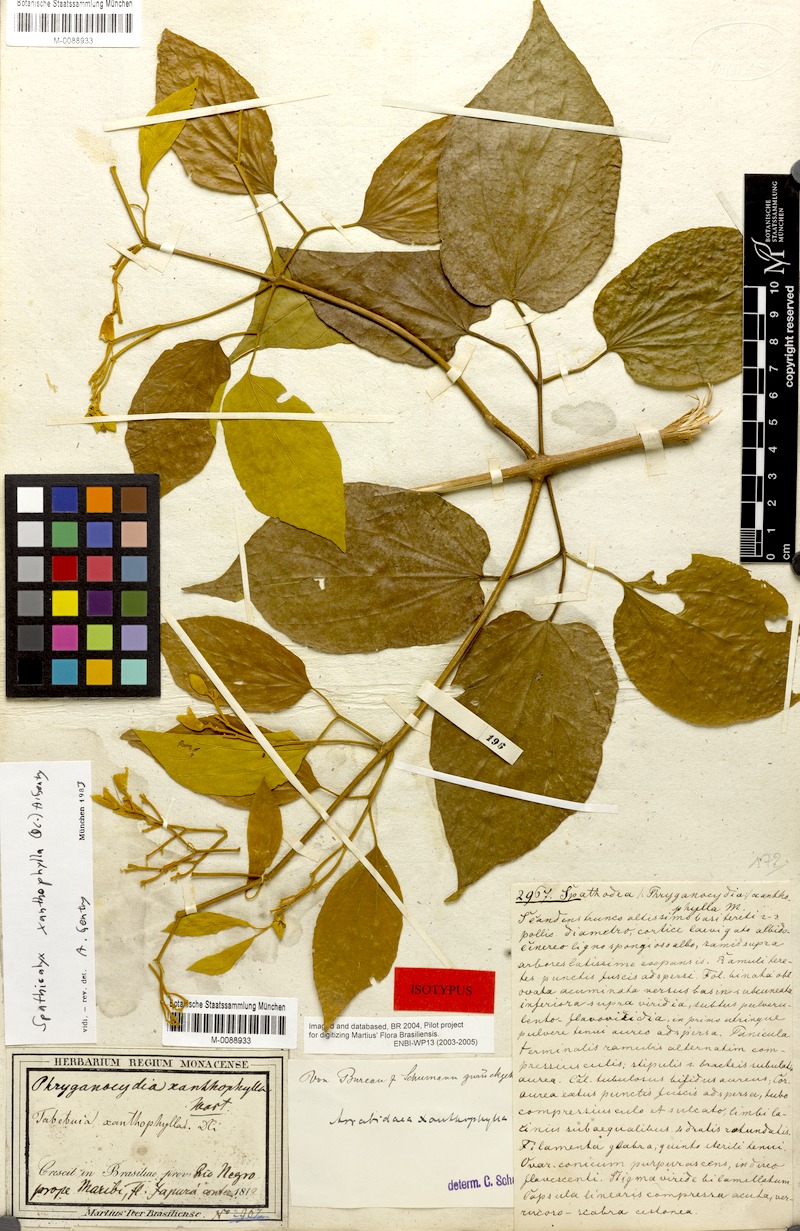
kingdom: Plantae
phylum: Tracheophyta
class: Magnoliopsida
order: Lamiales
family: Bignoniaceae
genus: Tanaecium
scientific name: Tanaecium xanthophyllum
